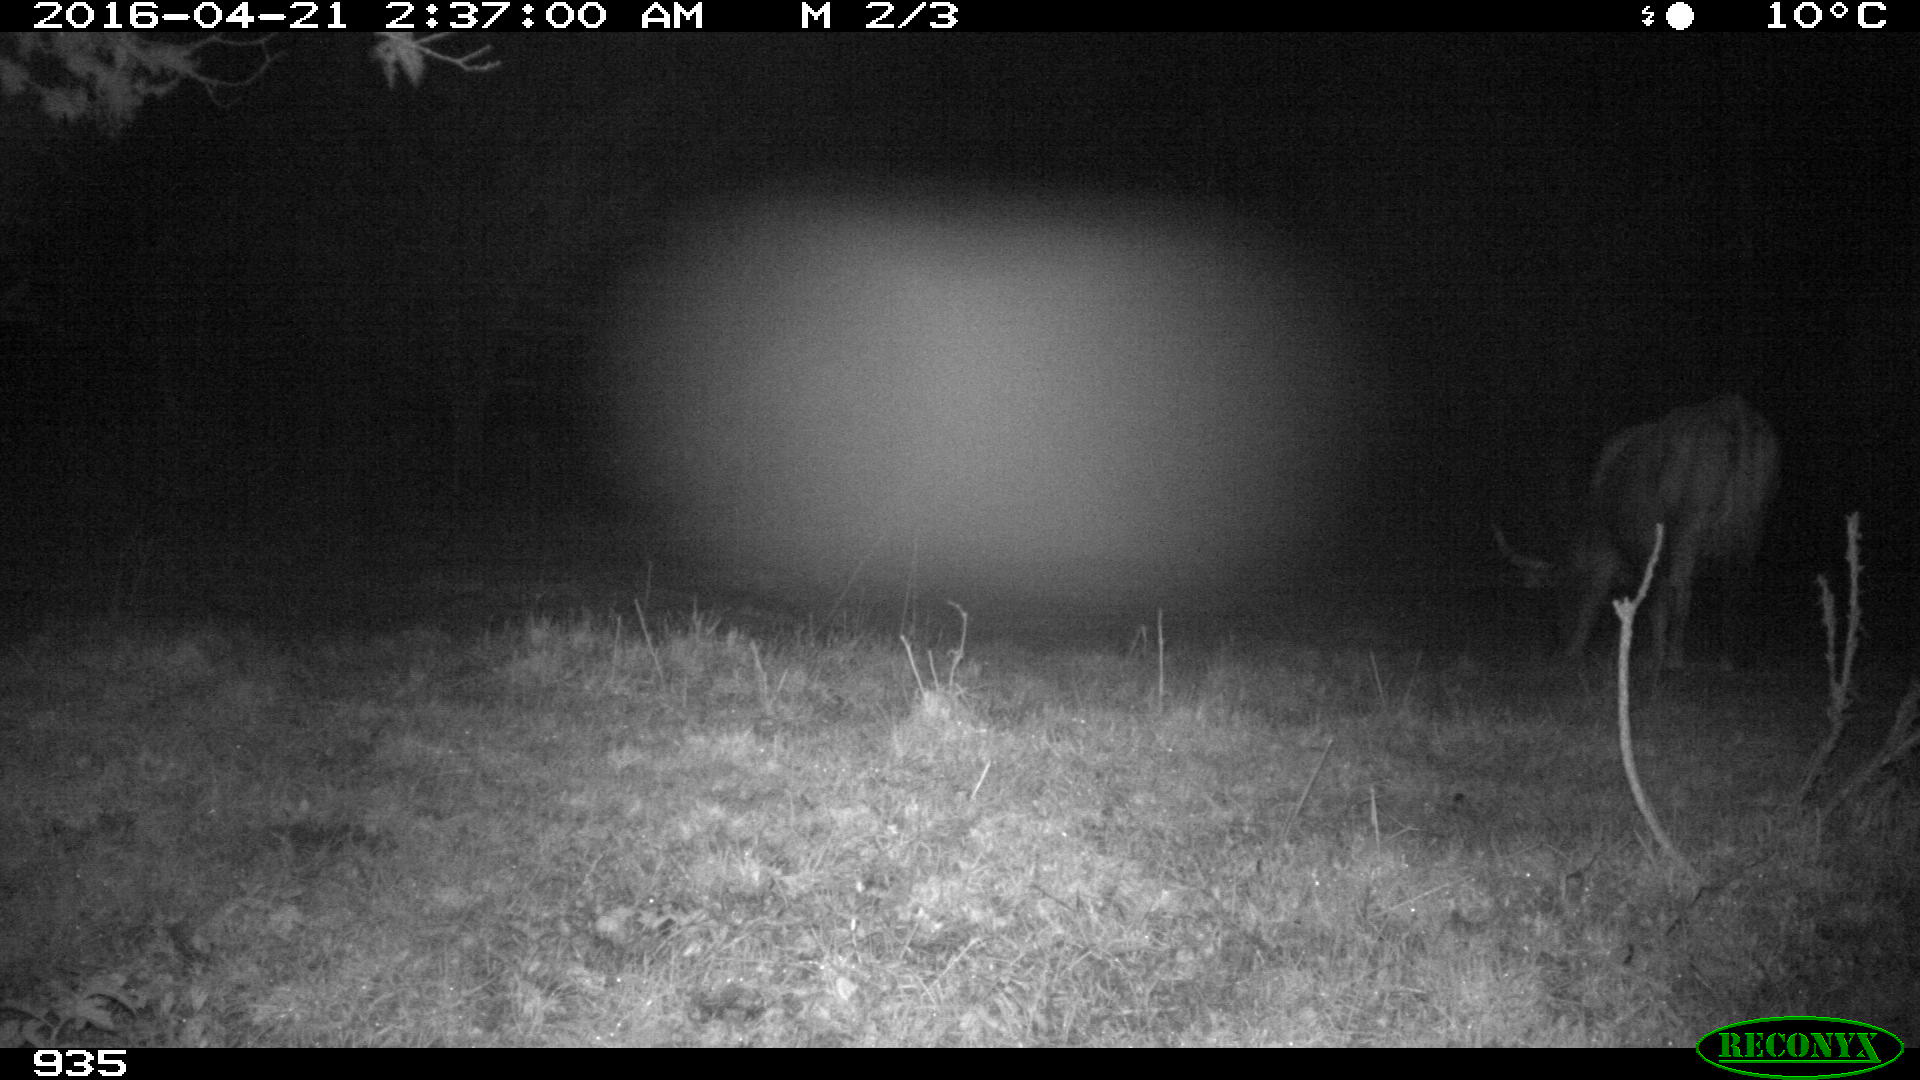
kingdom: Animalia
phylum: Chordata
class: Mammalia
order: Artiodactyla
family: Bovidae
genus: Bos
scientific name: Bos taurus
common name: Domesticated cattle
